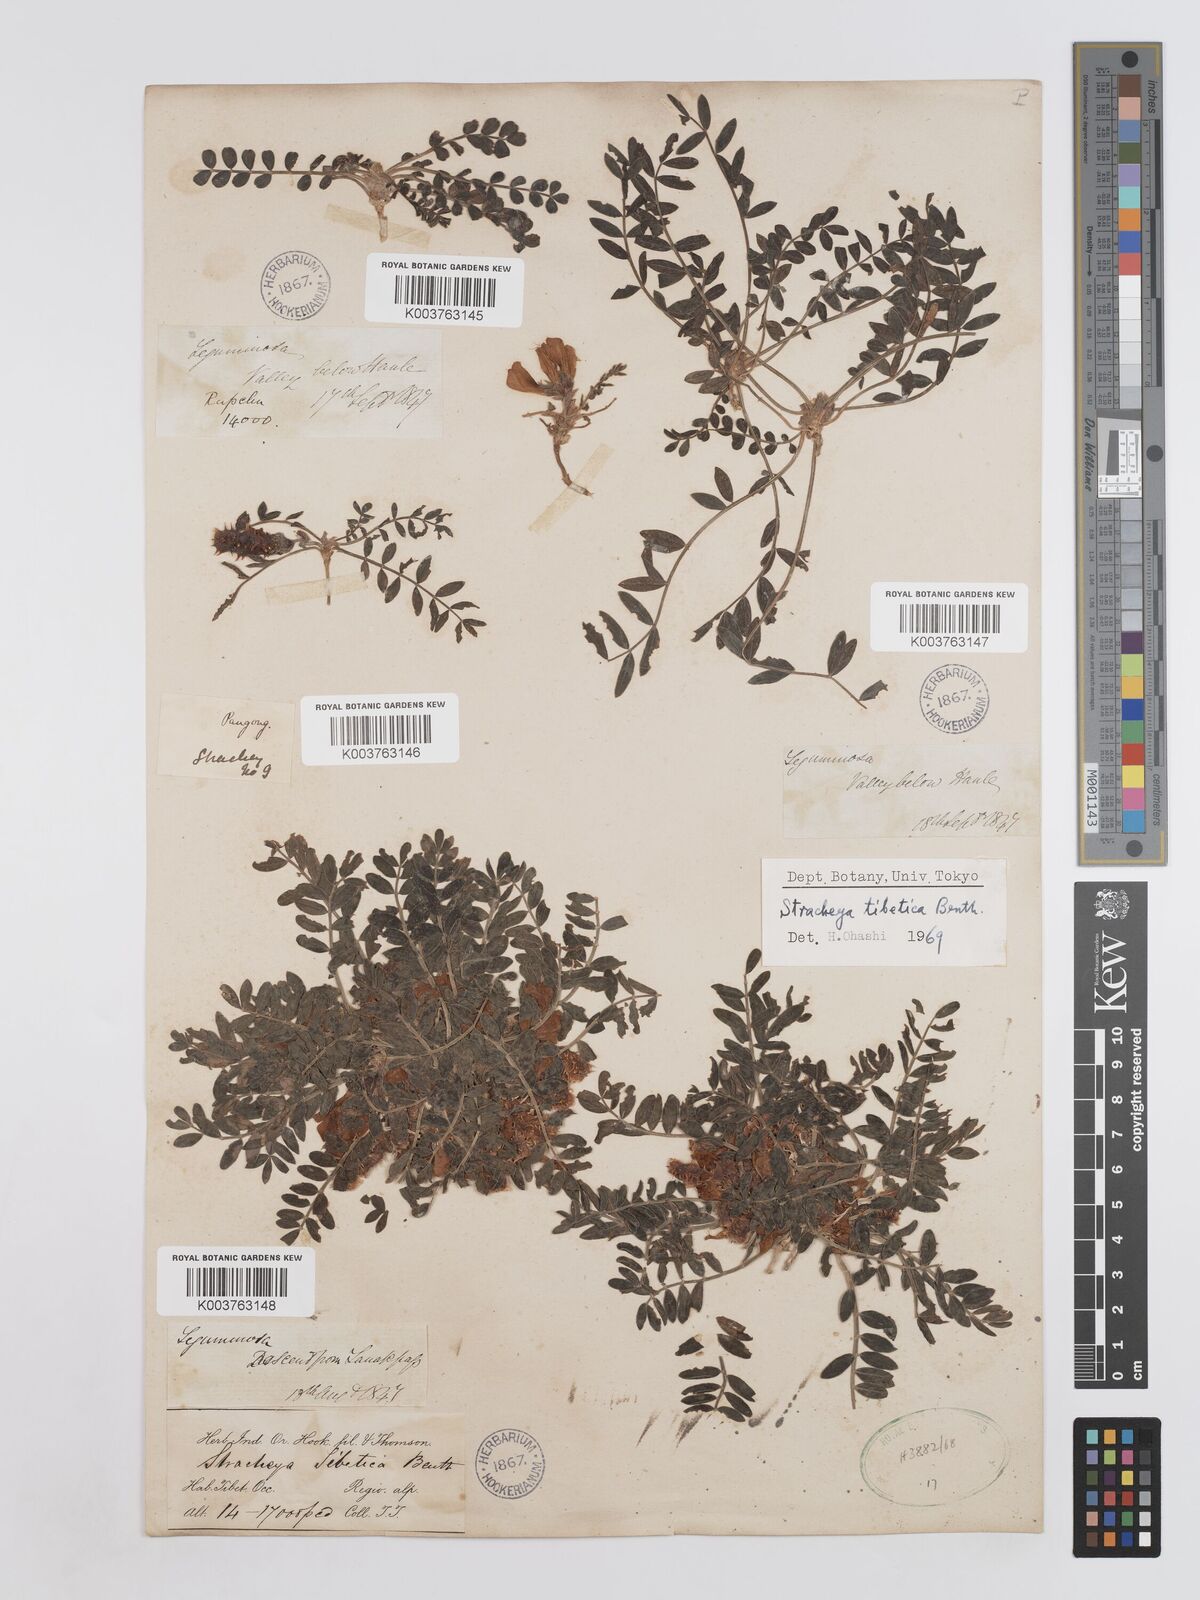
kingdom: Plantae
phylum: Tracheophyta
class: Magnoliopsida
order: Fabales
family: Fabaceae
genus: Hedysarum
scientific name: Hedysarum tibeticum
